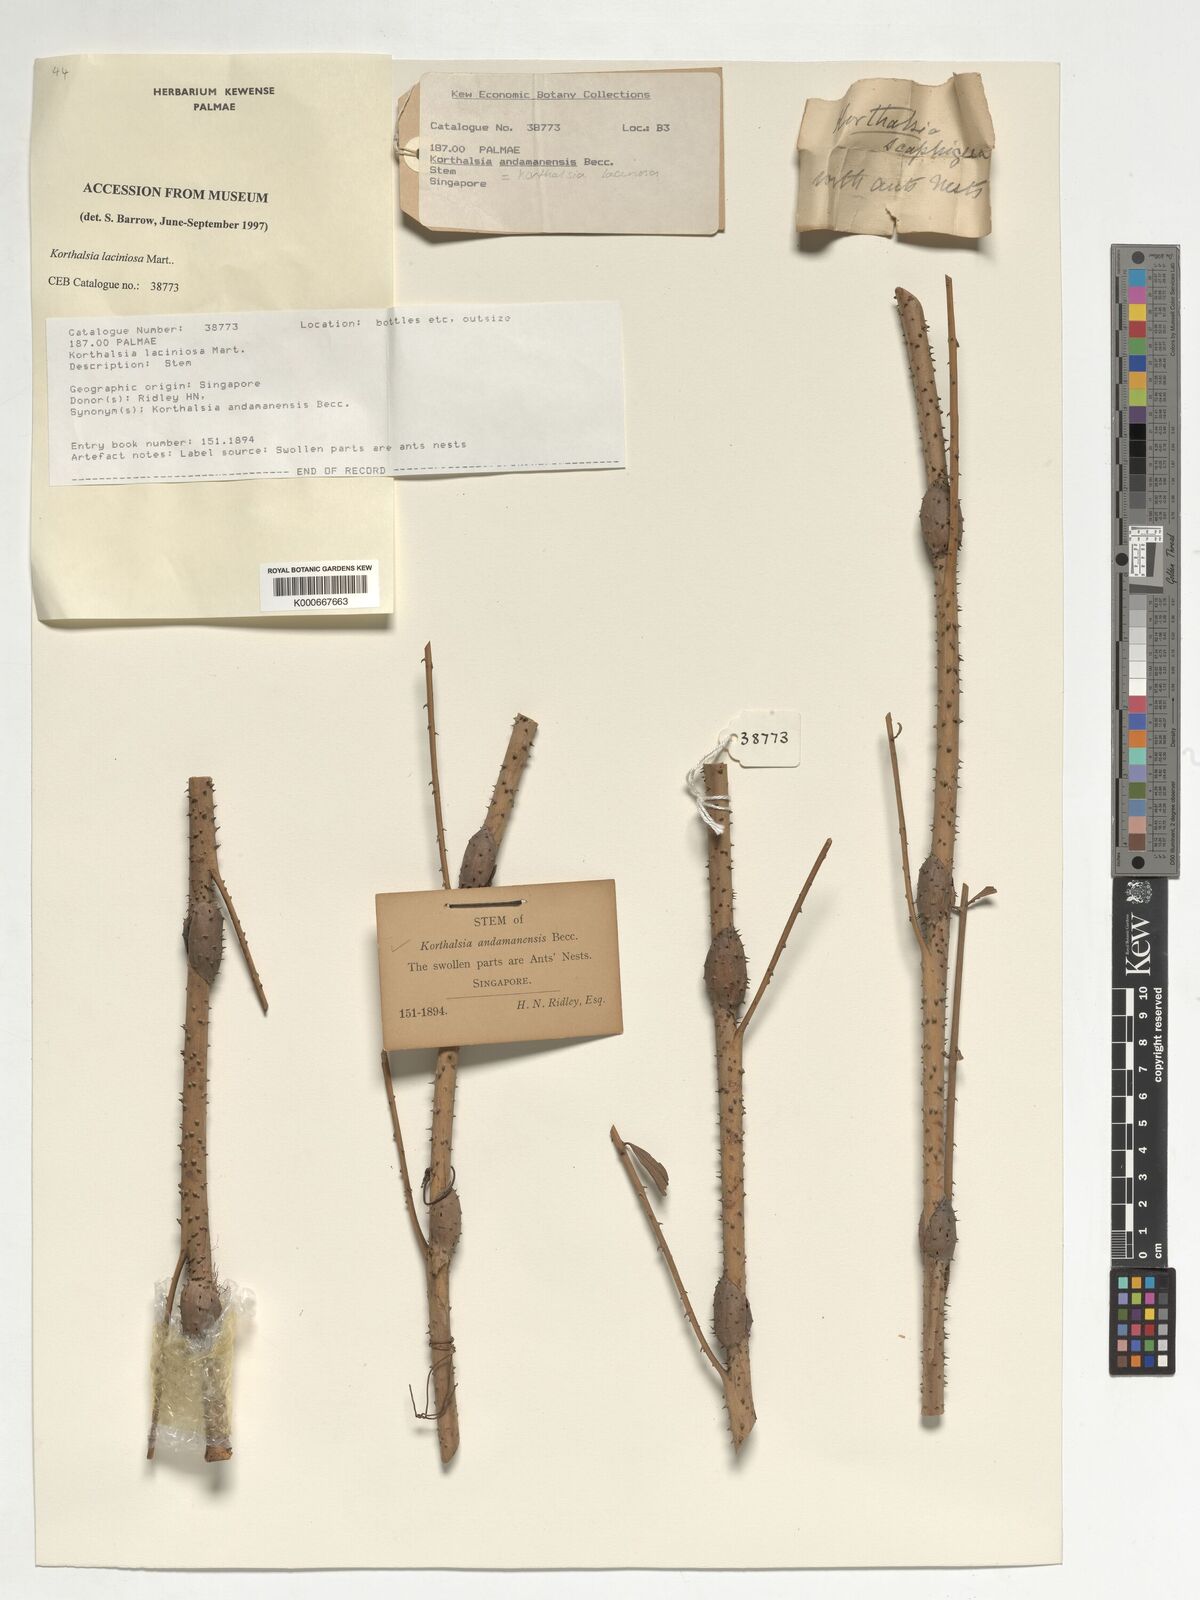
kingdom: Plantae
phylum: Tracheophyta
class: Liliopsida
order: Arecales
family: Arecaceae
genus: Korthalsia
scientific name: Korthalsia laciniosa
